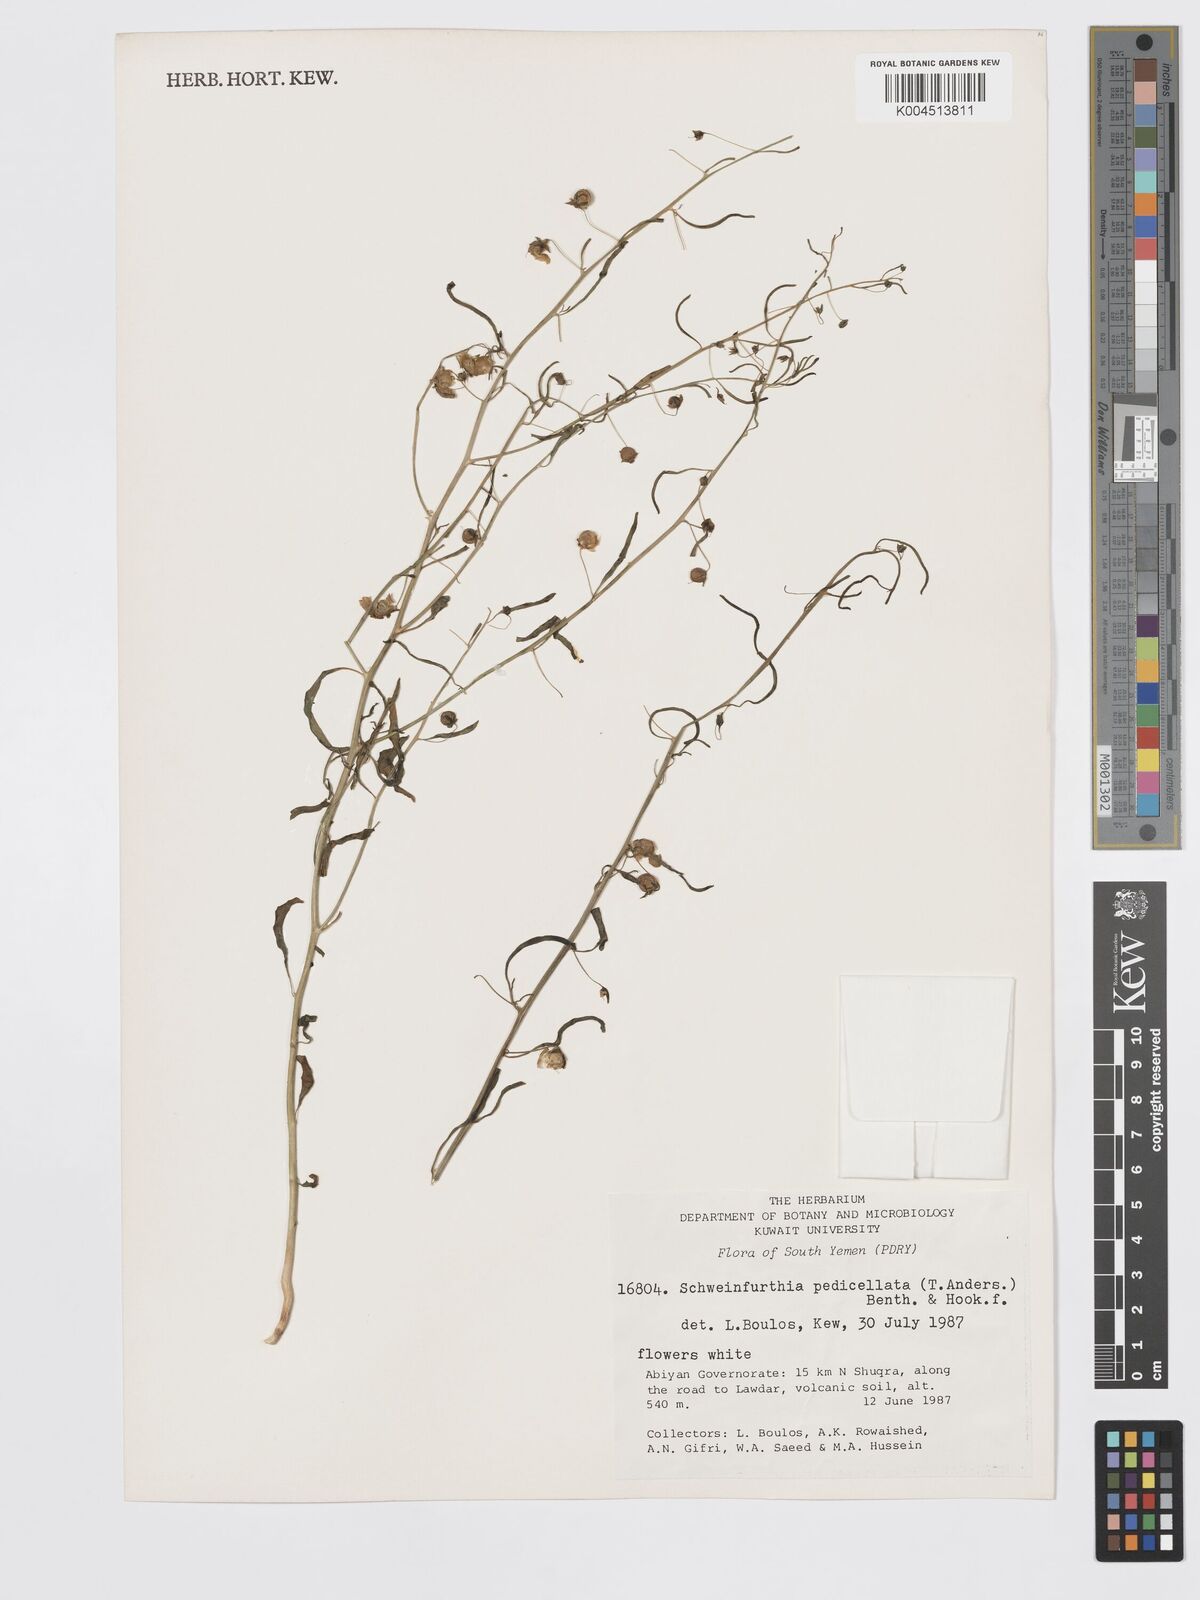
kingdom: Plantae
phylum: Tracheophyta
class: Magnoliopsida
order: Lamiales
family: Plantaginaceae
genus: Schweinfurthia
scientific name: Schweinfurthia pedicellata
